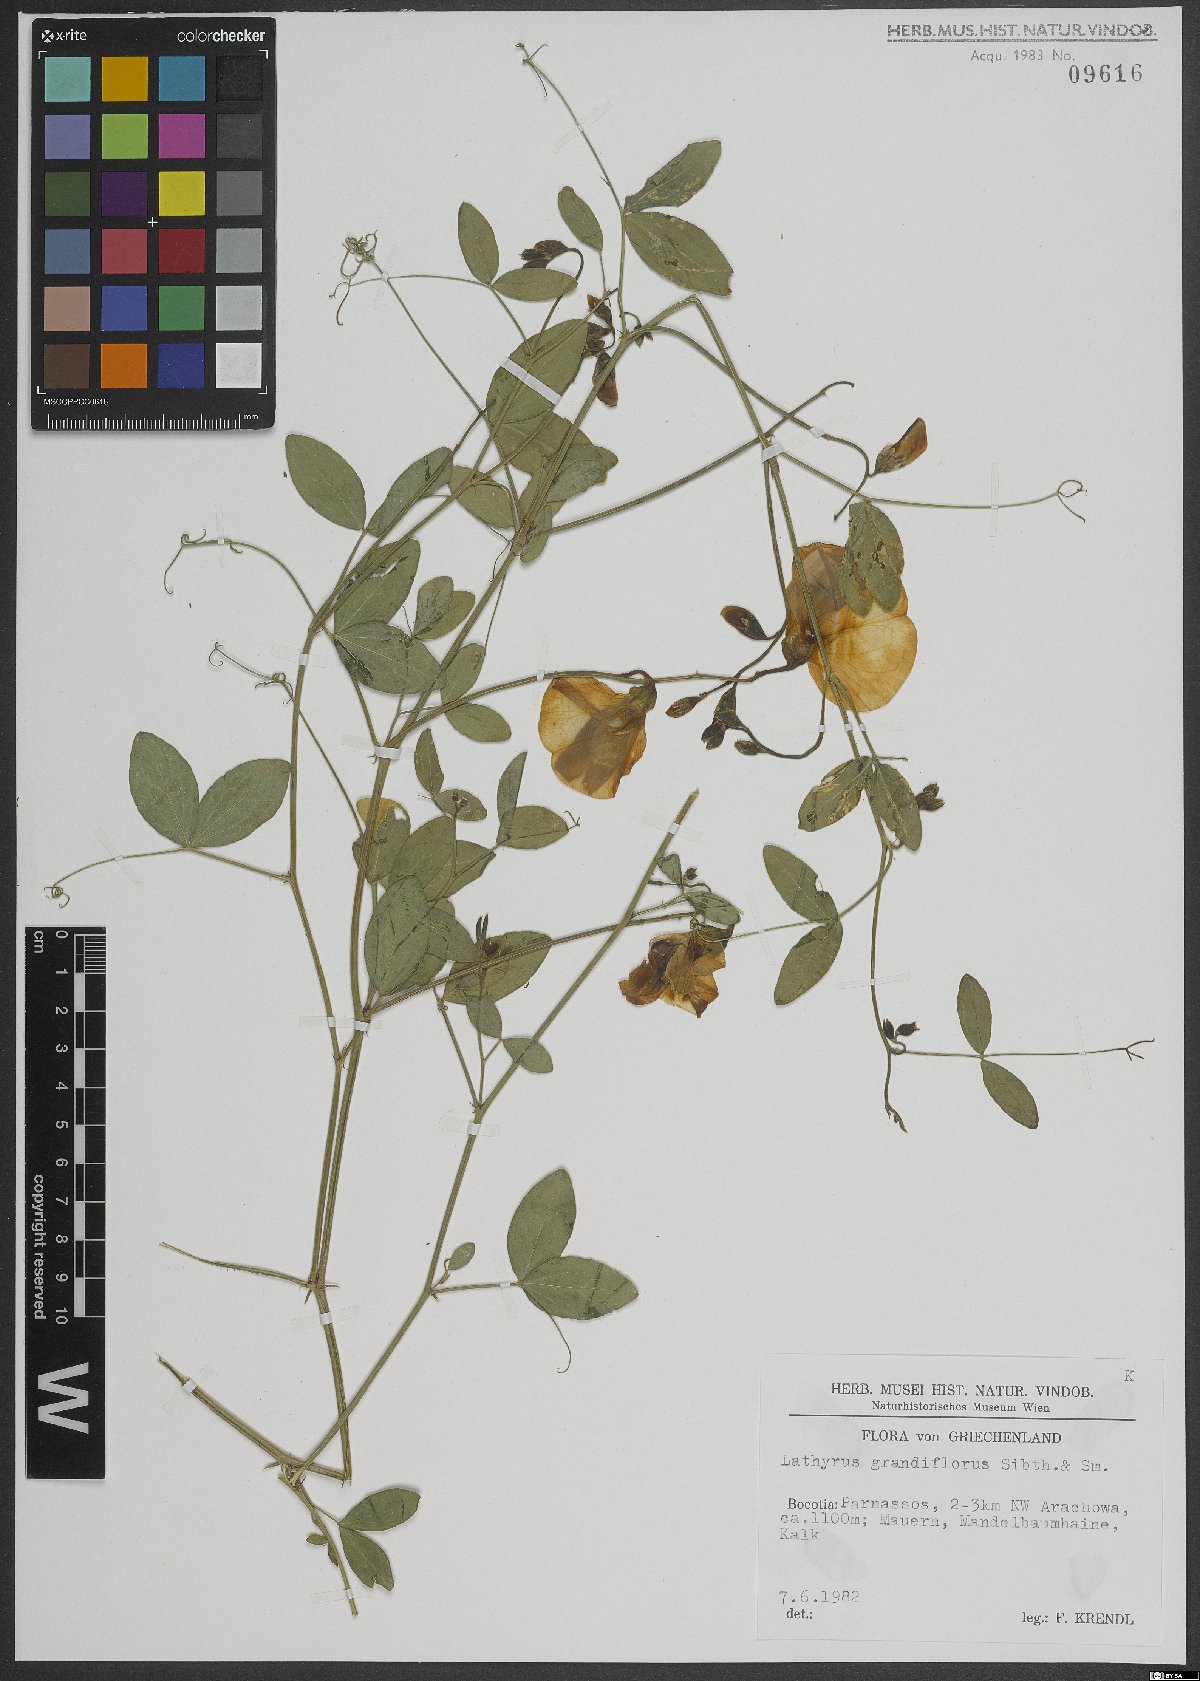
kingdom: Plantae
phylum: Tracheophyta
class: Magnoliopsida
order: Fabales
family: Fabaceae
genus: Lathyrus
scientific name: Lathyrus grandiflorus
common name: Two-flowered everlasting-pea
